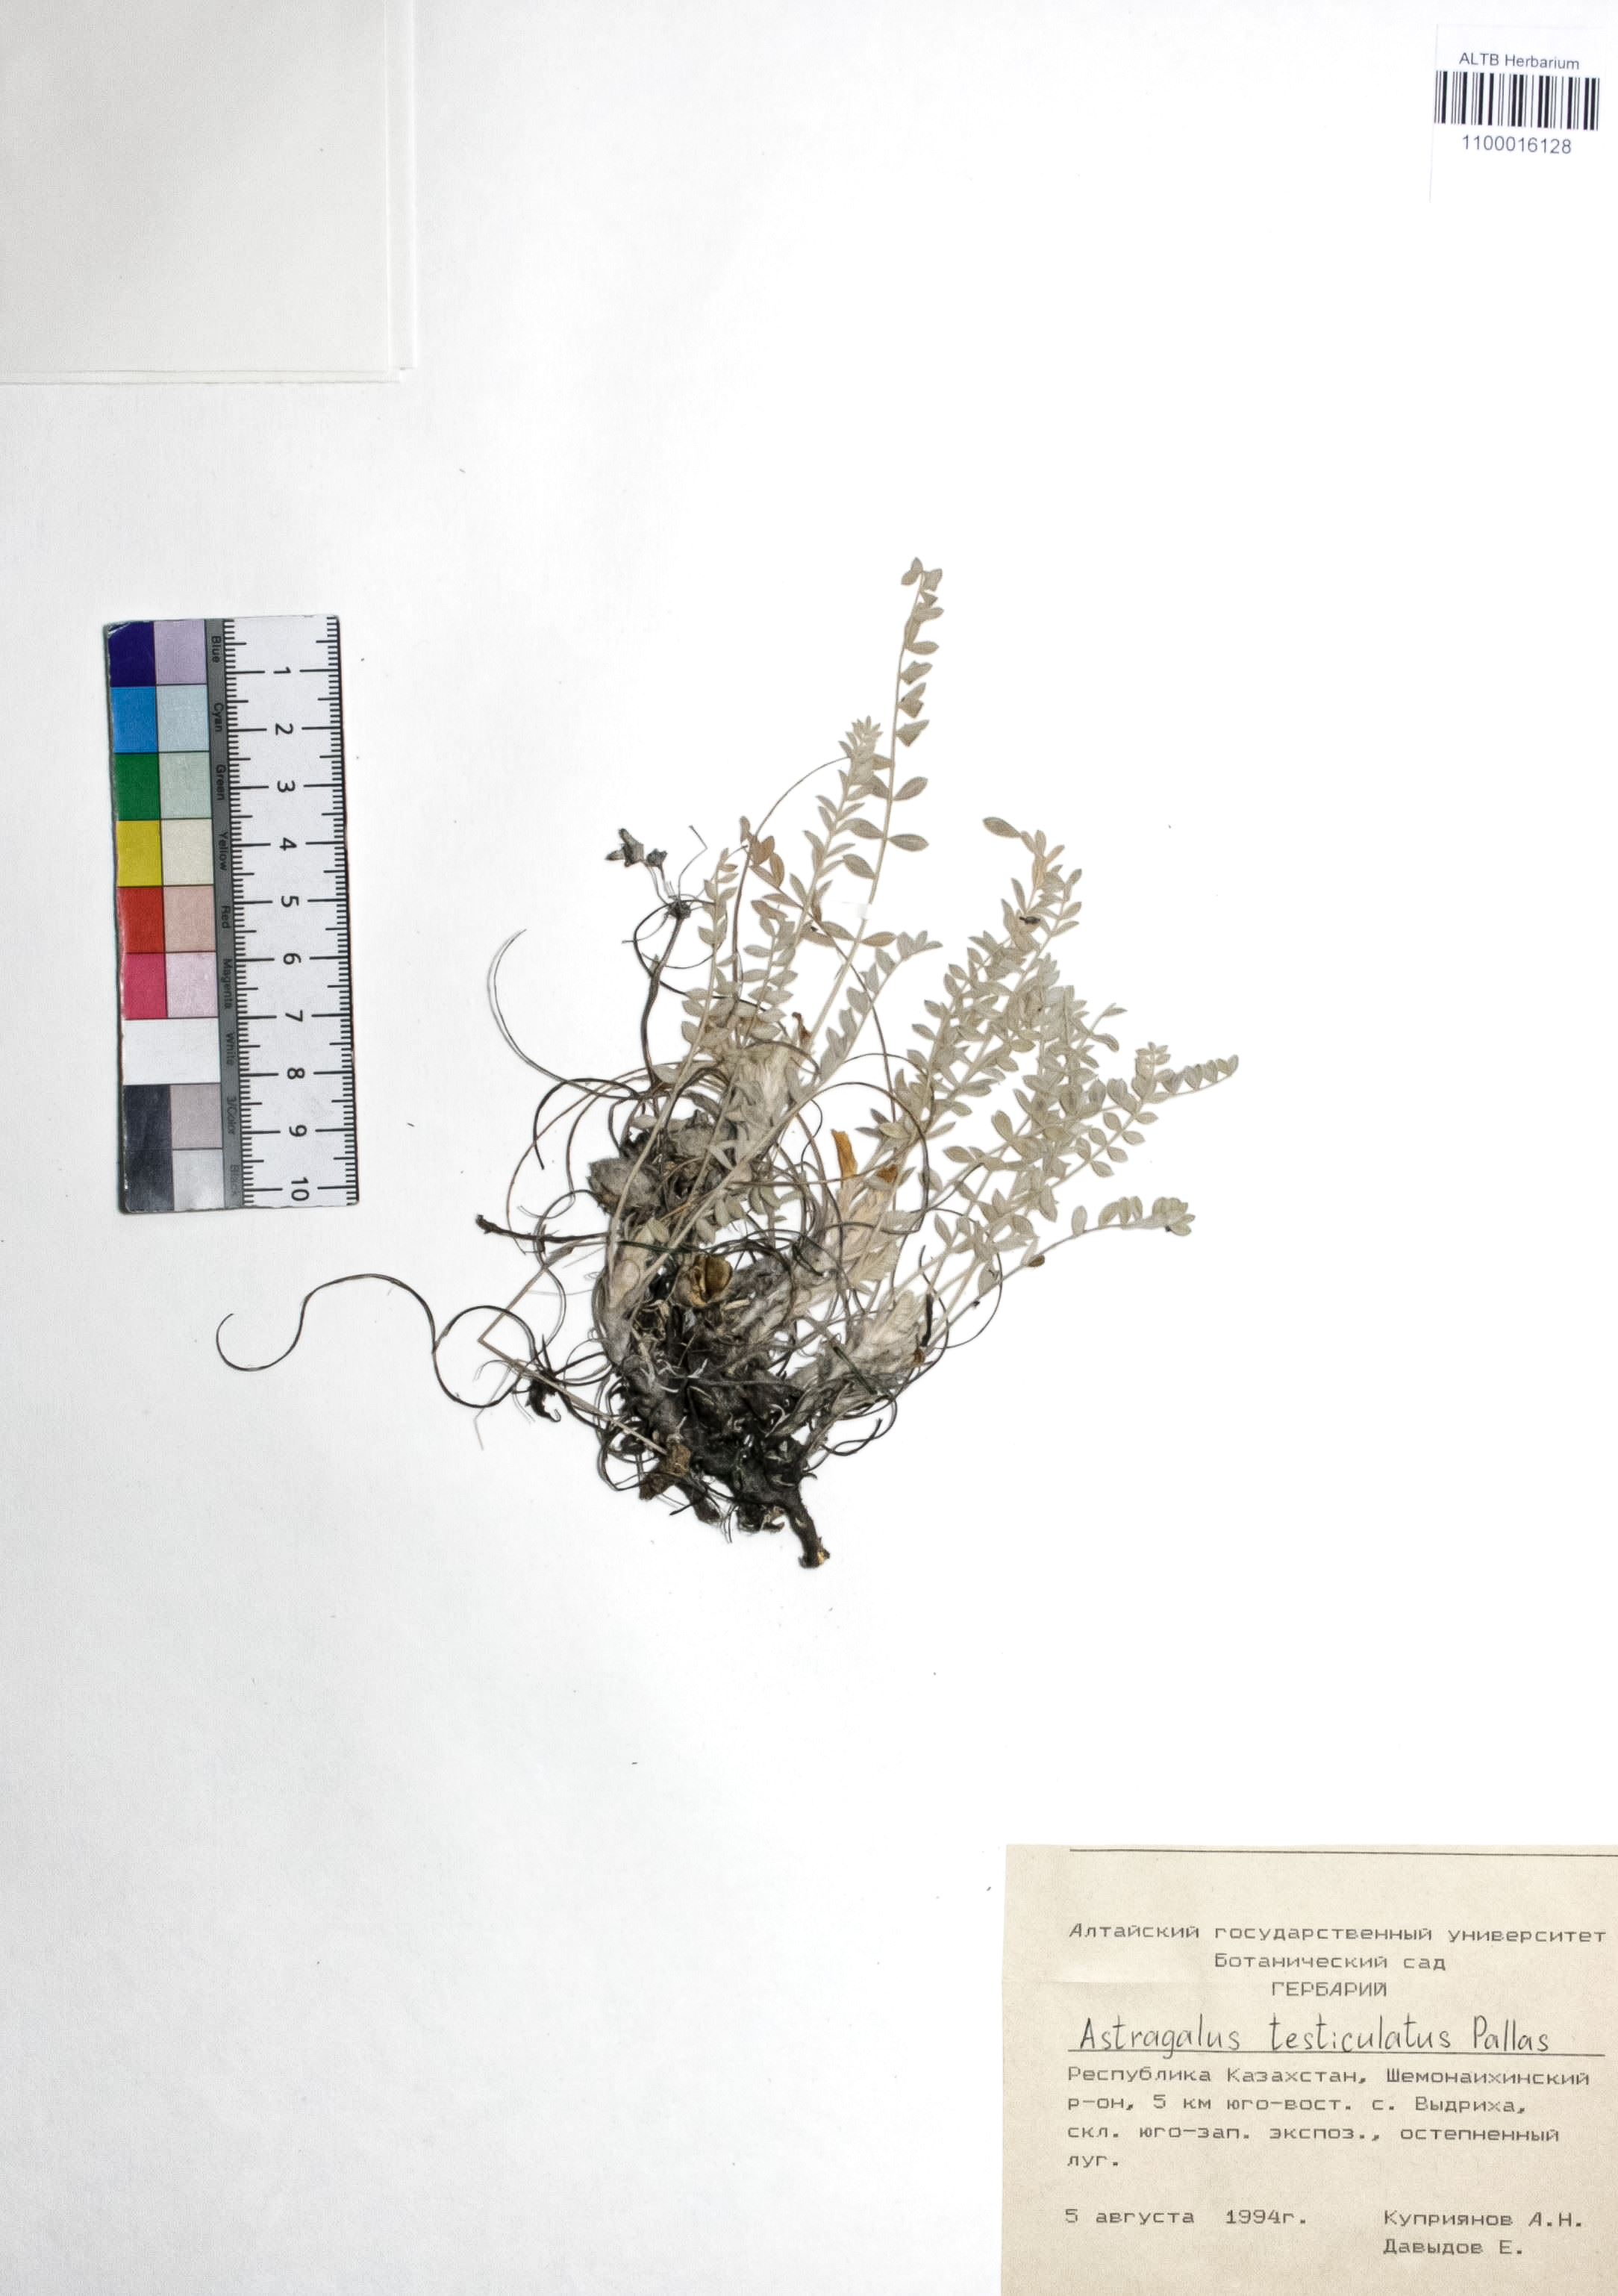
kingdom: Plantae
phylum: Tracheophyta
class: Magnoliopsida
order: Fabales
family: Fabaceae
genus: Astragalus
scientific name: Astragalus testiculatus
